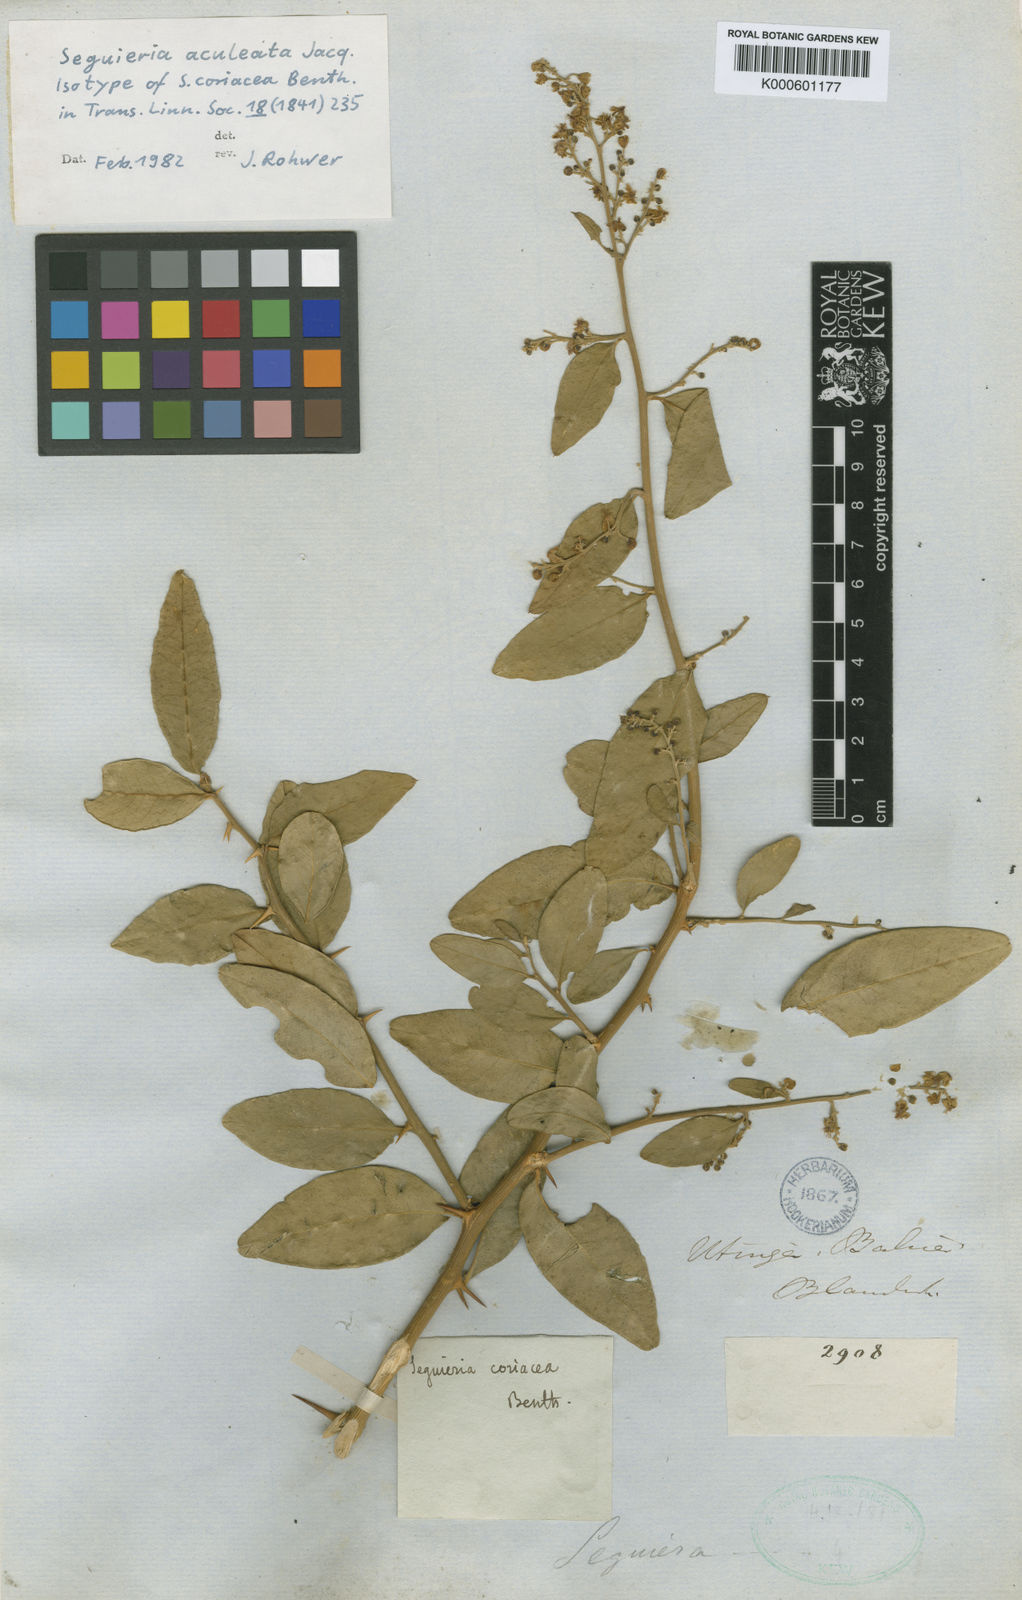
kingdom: Plantae
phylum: Tracheophyta
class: Magnoliopsida
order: Caryophyllales
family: Phytolaccaceae
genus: Seguieria
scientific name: Seguieria aculeata
